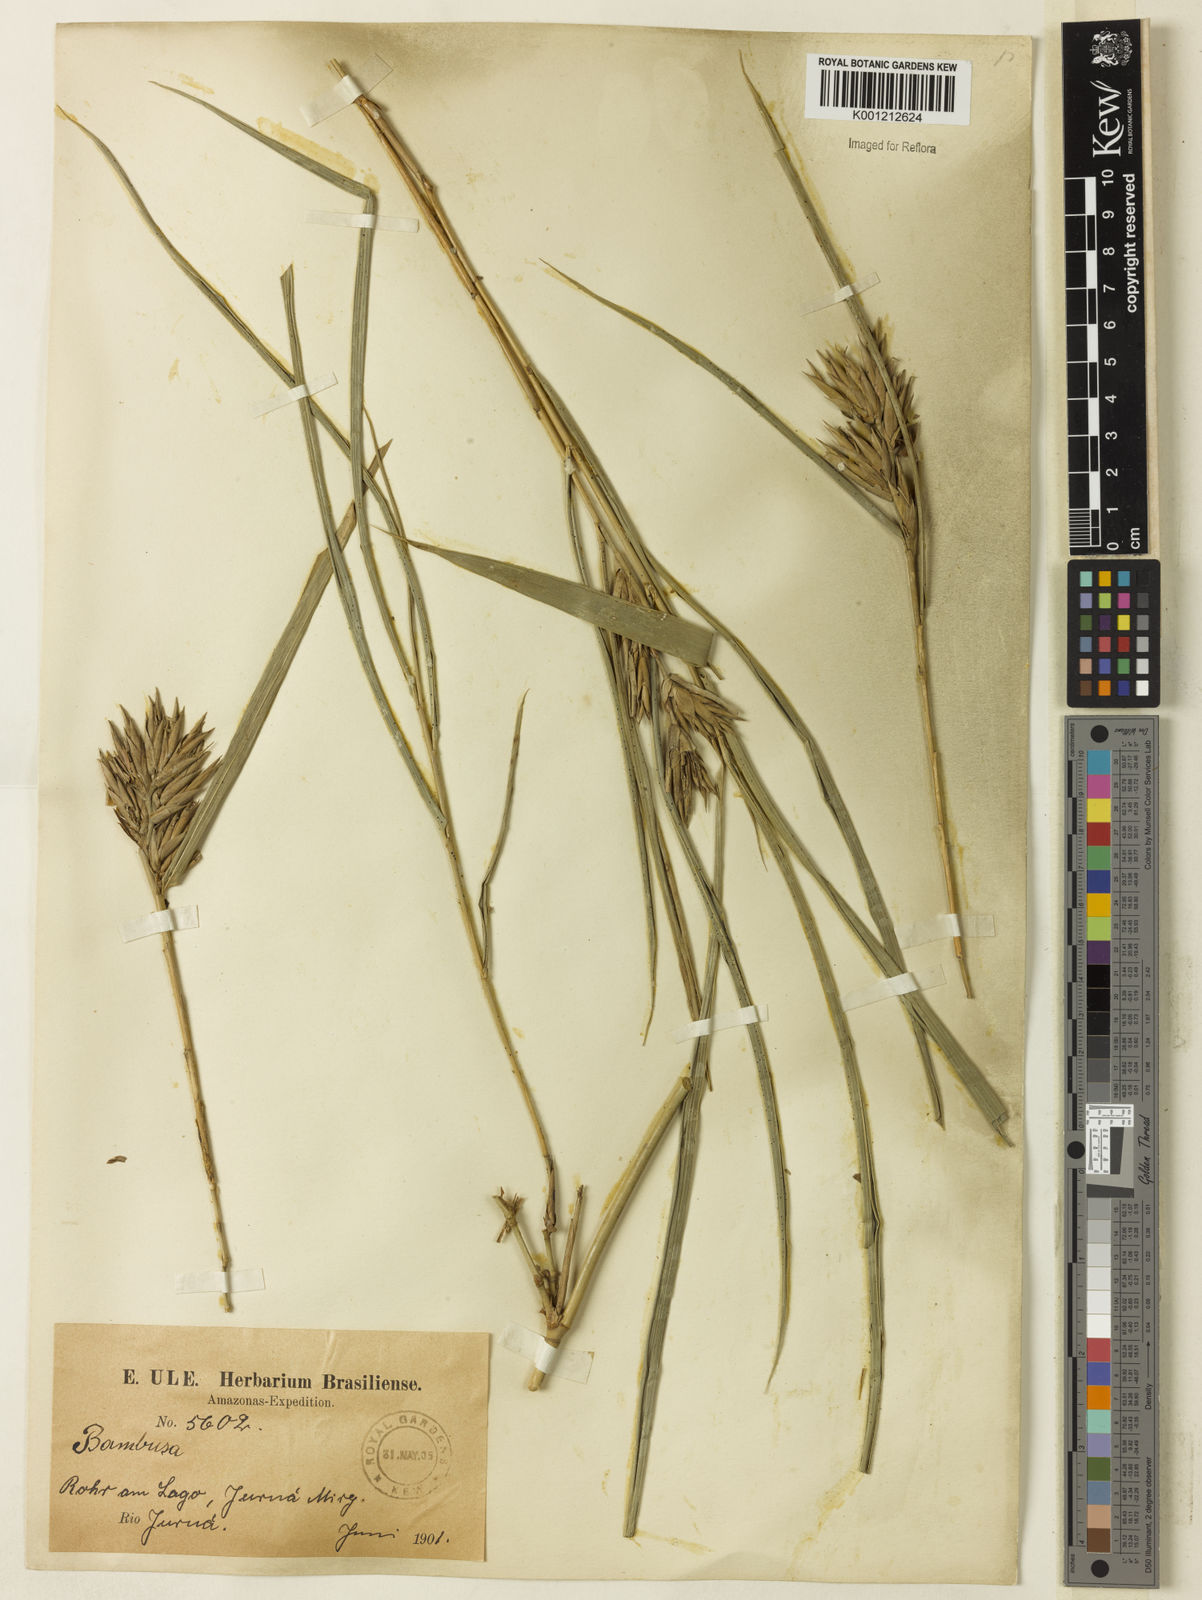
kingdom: Plantae
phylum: Tracheophyta
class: Liliopsida
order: Poales
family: Poaceae
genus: Merostachys
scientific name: Merostachys
